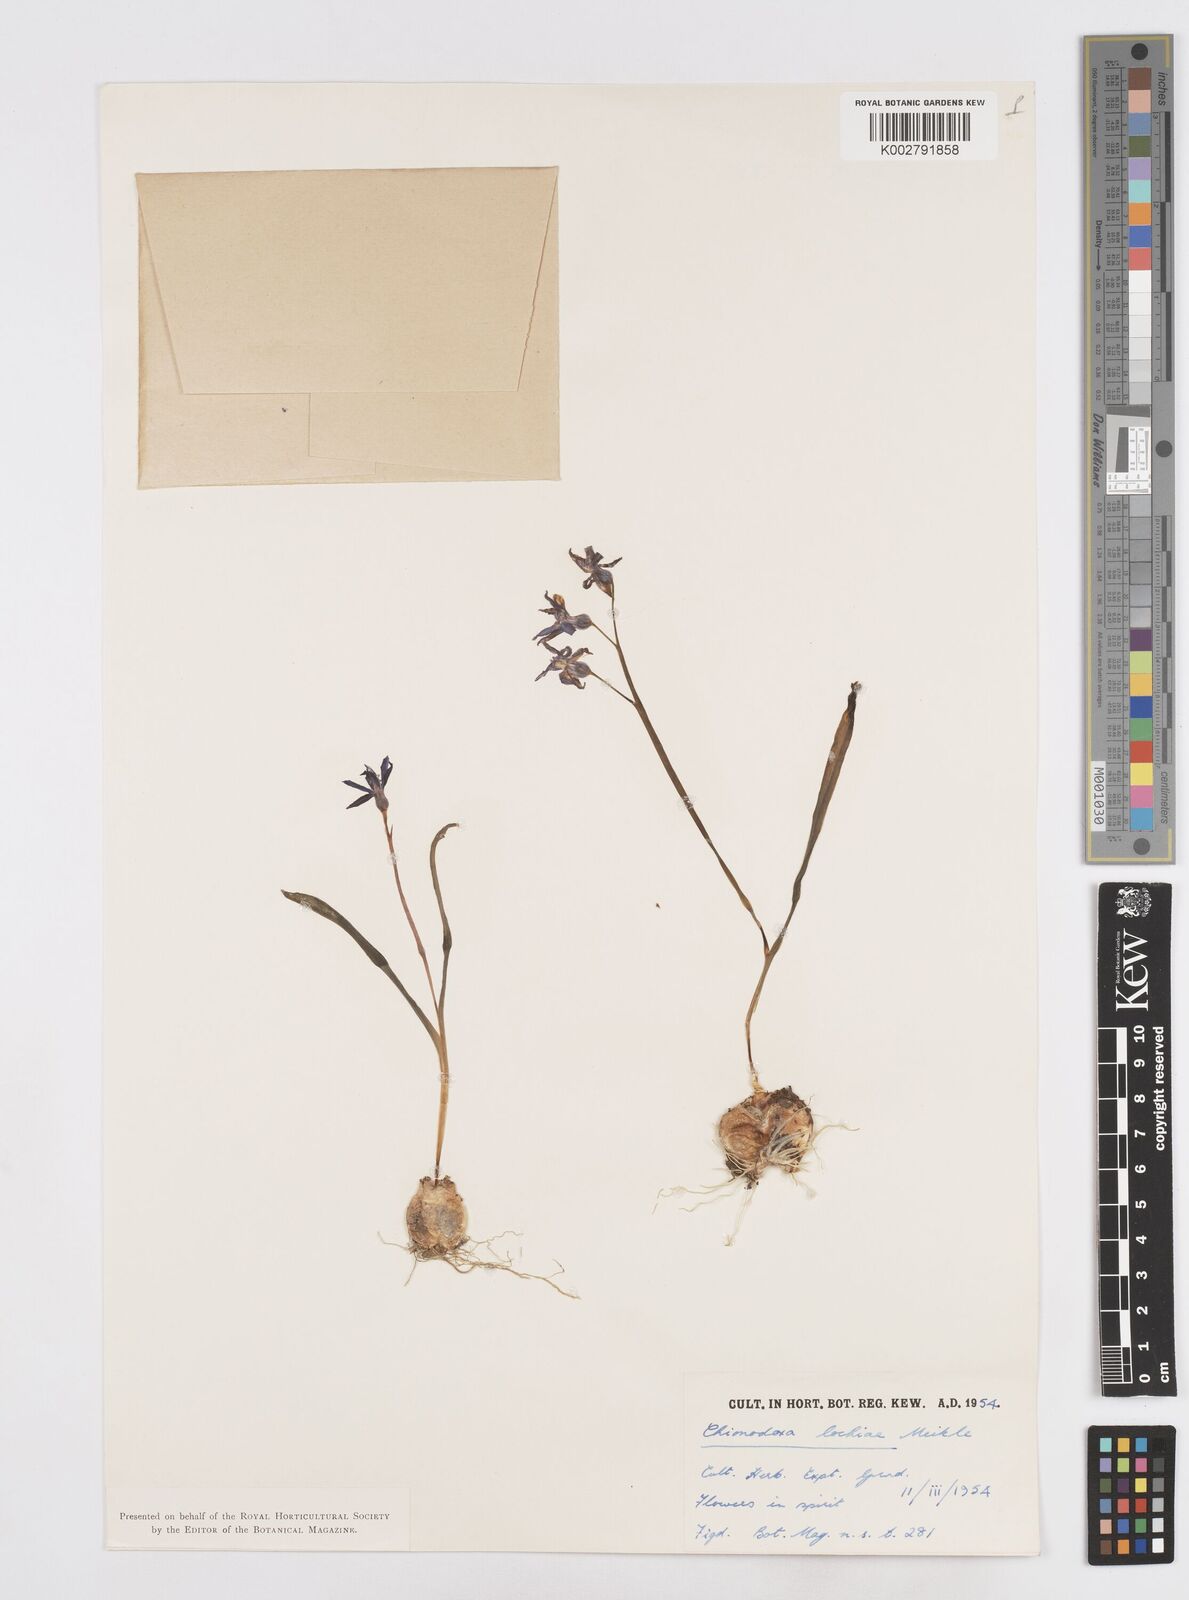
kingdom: Plantae
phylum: Tracheophyta
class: Liliopsida
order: Asparagales
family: Asparagaceae
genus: Scilla
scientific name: Scilla lochiae
